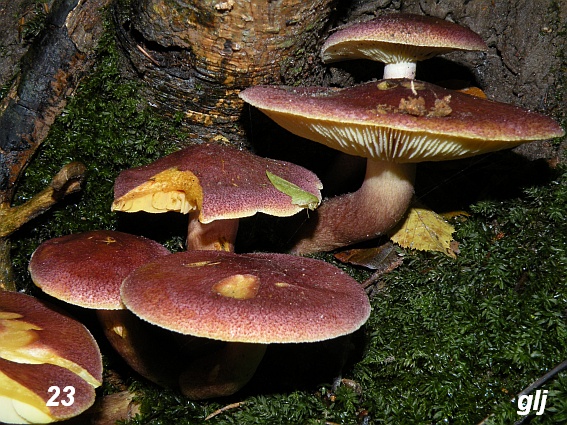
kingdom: Fungi
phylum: Basidiomycota
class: Agaricomycetes
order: Agaricales
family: Tricholomataceae
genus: Tricholomopsis
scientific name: Tricholomopsis rutilans
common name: purpur-væbnerhat
